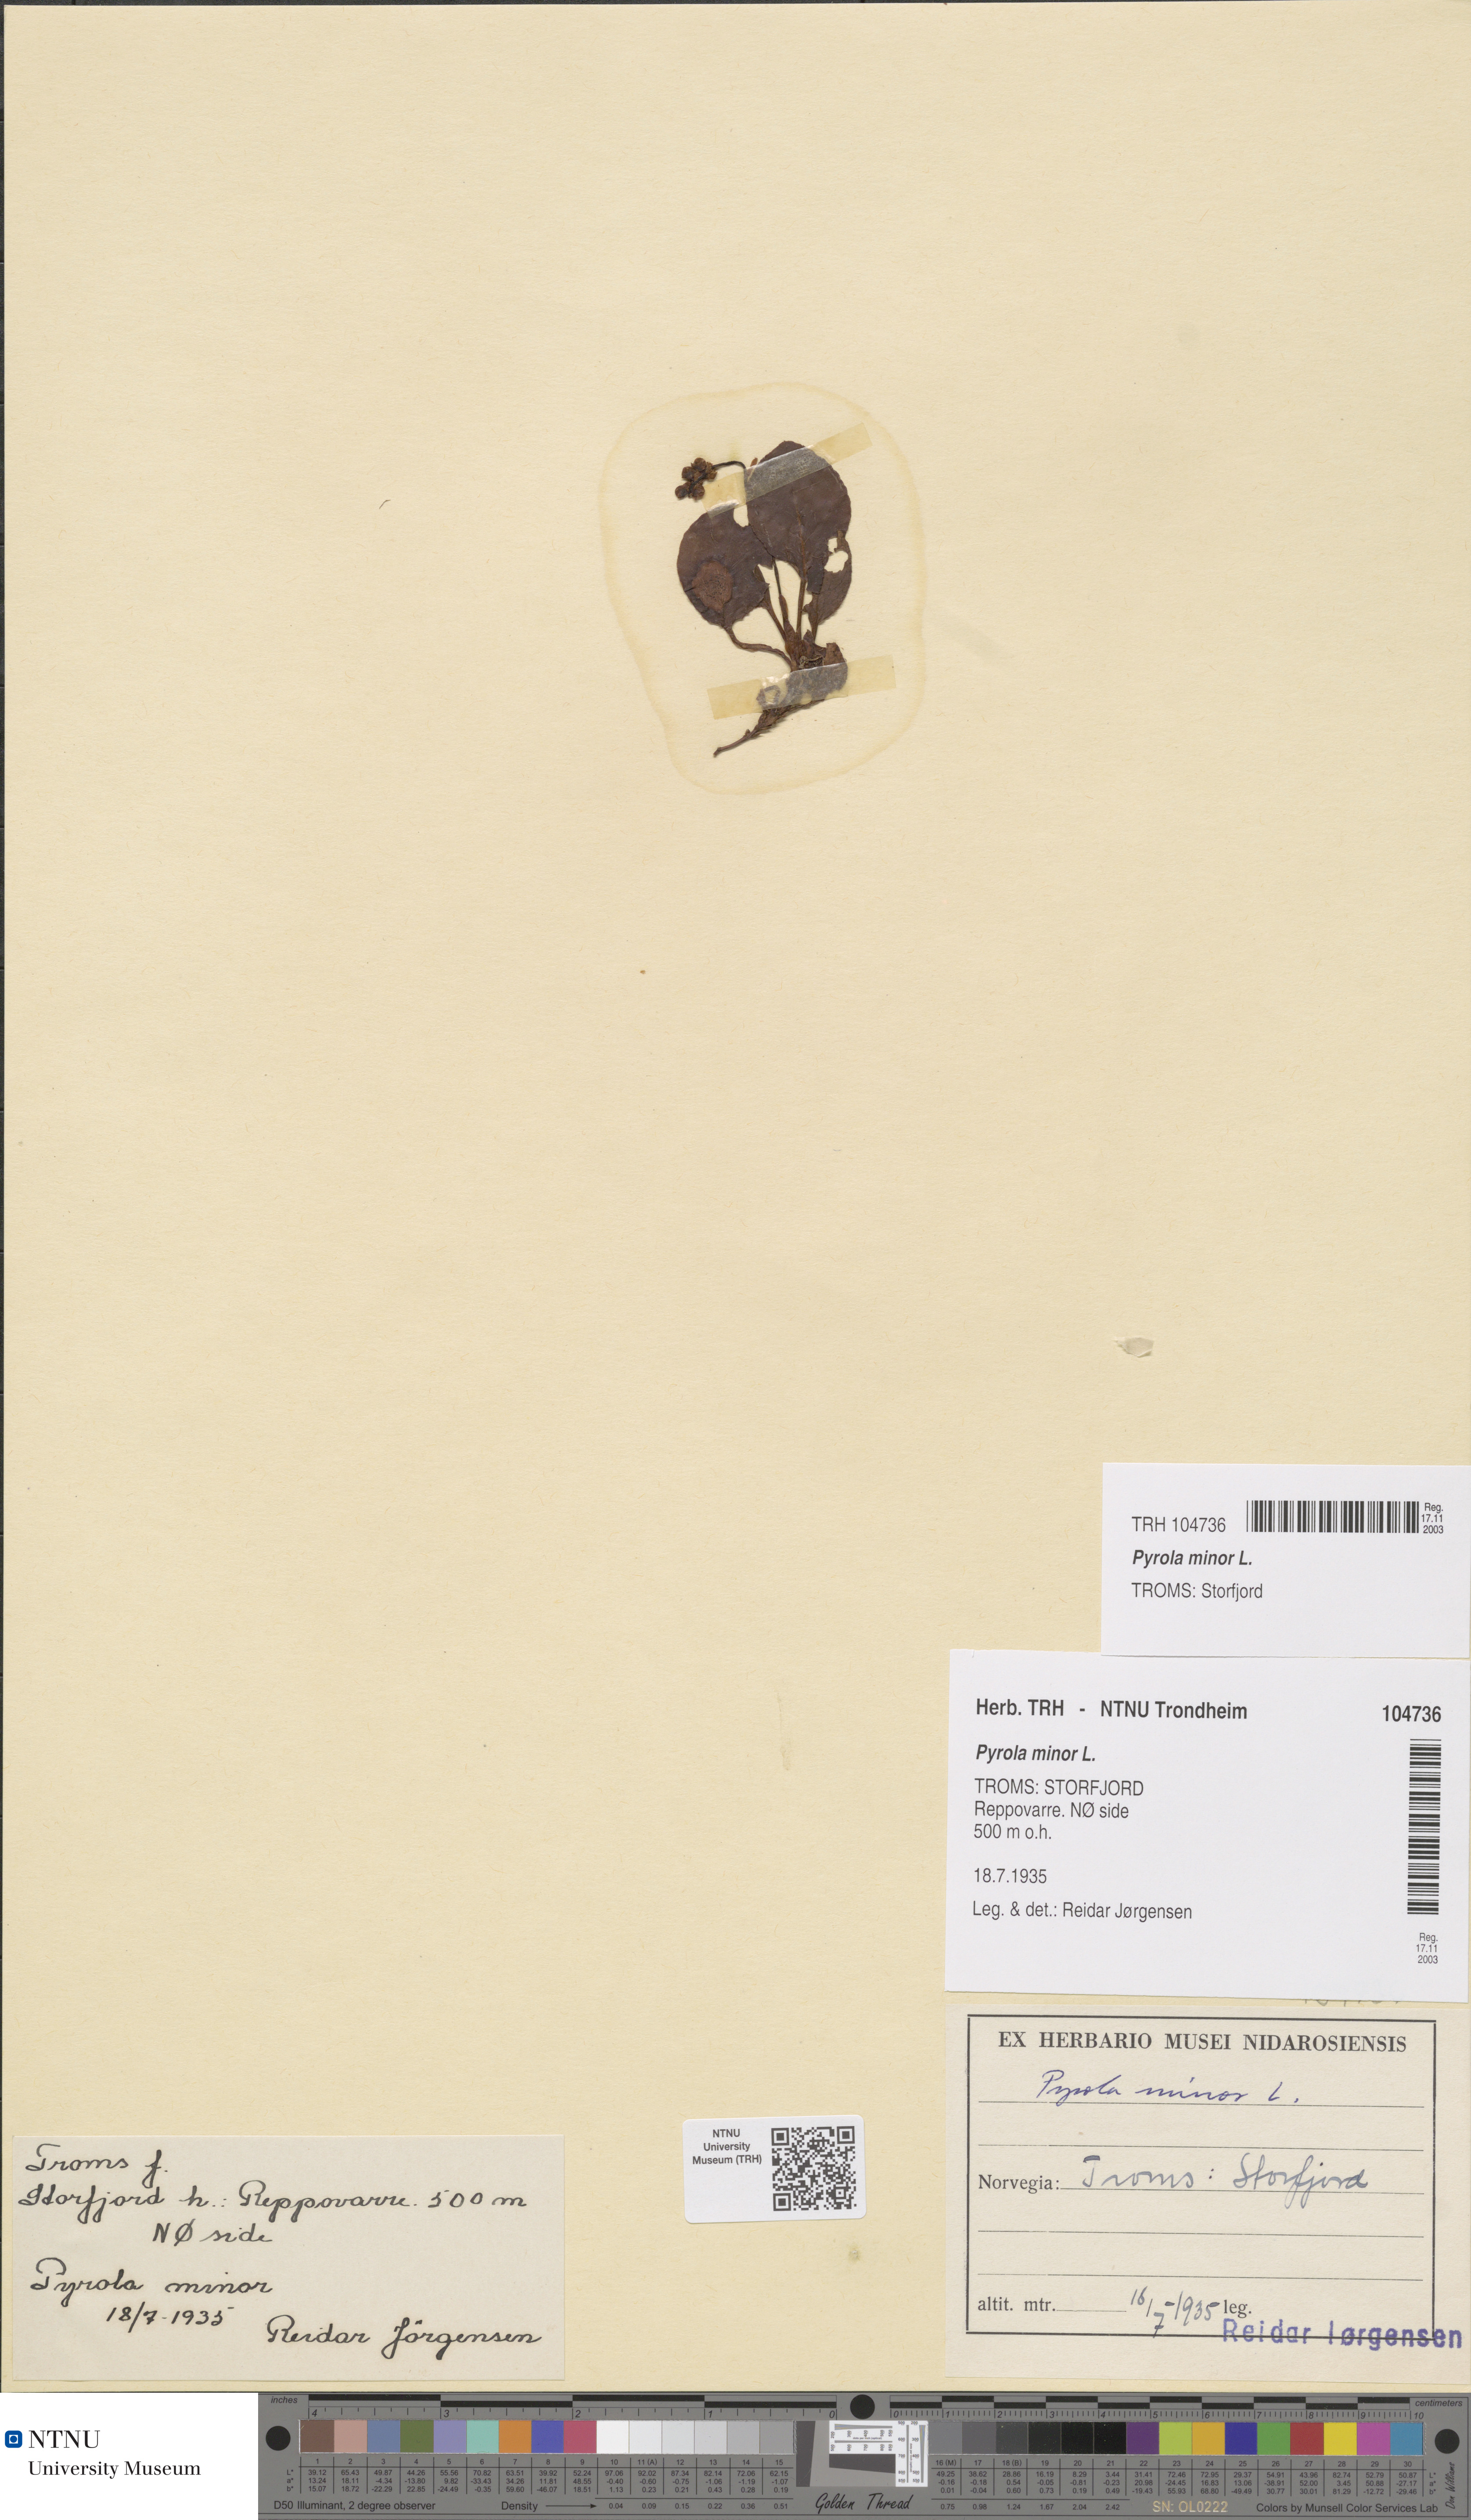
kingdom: Plantae
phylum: Tracheophyta
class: Magnoliopsida
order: Ericales
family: Ericaceae
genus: Pyrola
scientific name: Pyrola minor
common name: Common wintergreen
